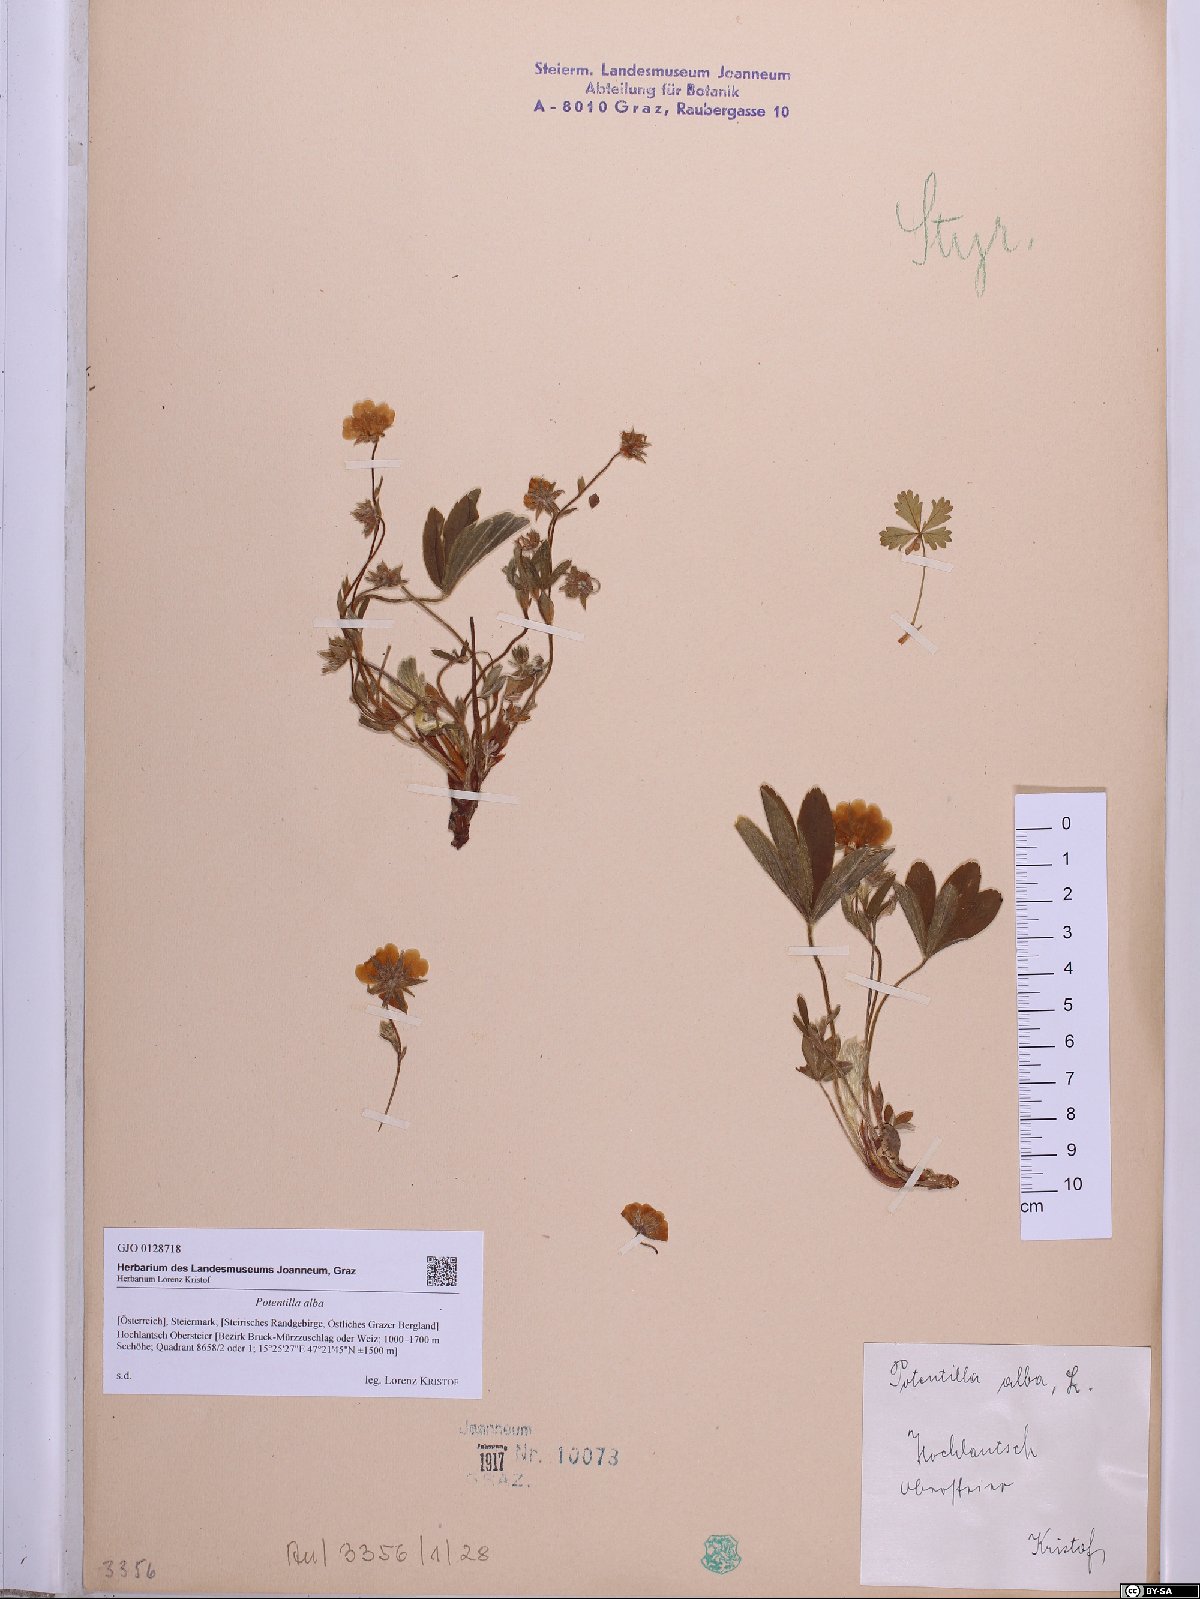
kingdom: Plantae
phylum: Tracheophyta
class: Magnoliopsida
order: Rosales
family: Rosaceae
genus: Potentilla
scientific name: Potentilla alba
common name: White cinquefoil
